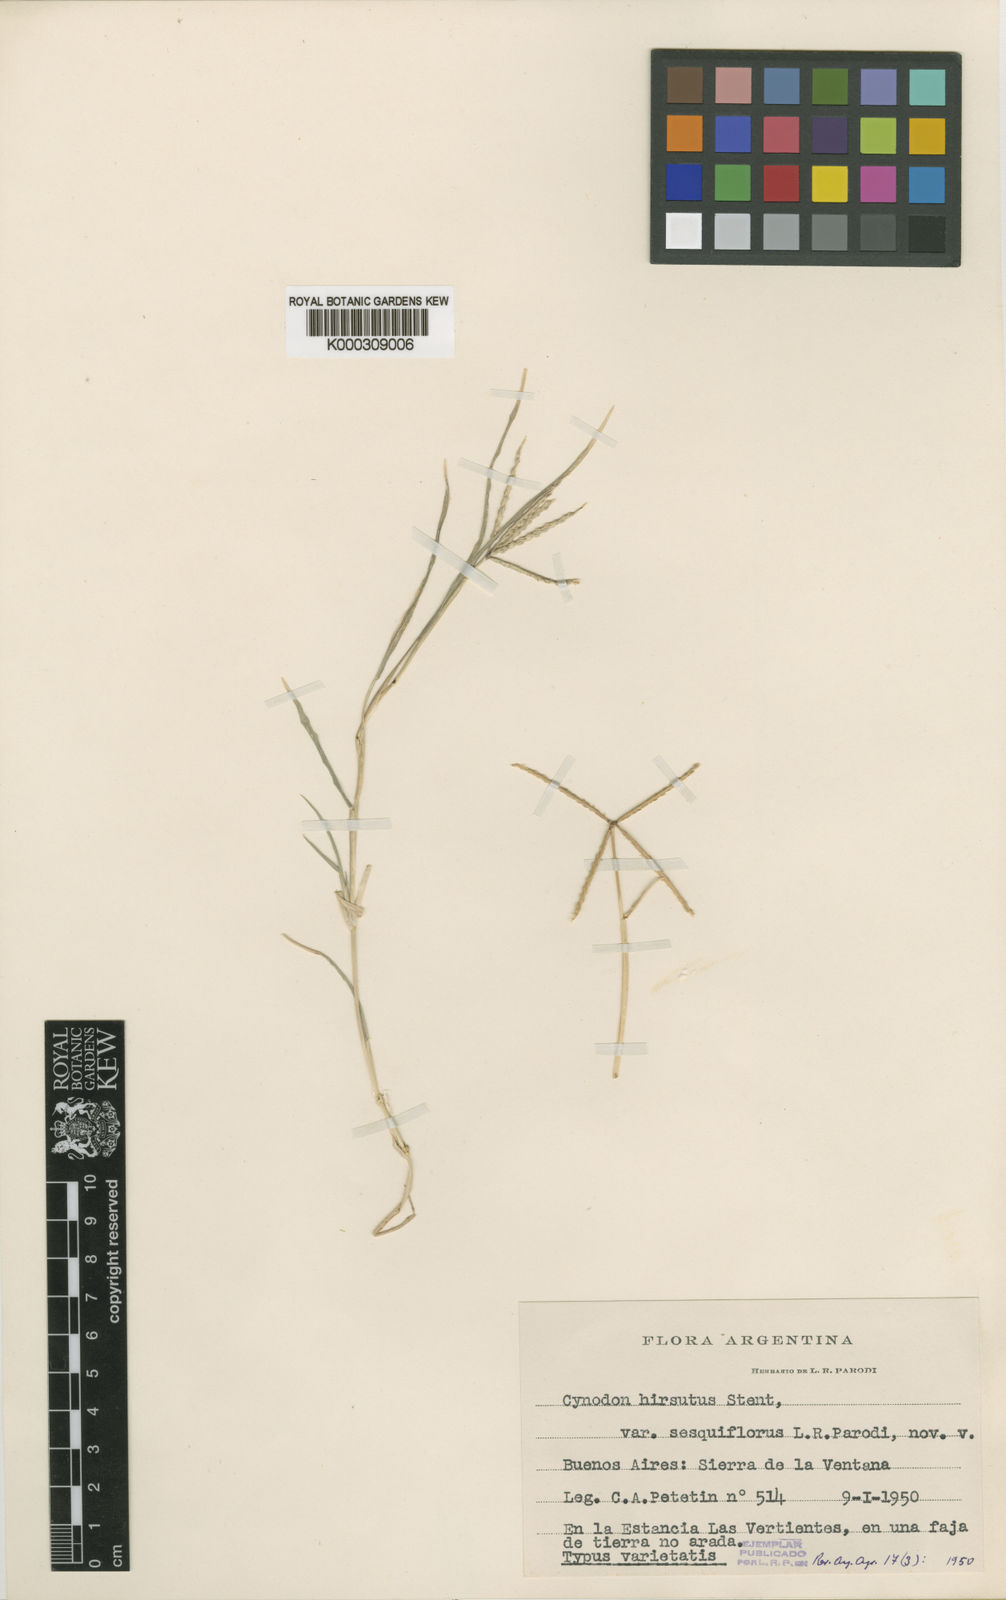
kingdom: Plantae
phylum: Tracheophyta
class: Liliopsida
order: Poales
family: Poaceae
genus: Cynodon
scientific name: Cynodon incompletus
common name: African bermuda-grass
